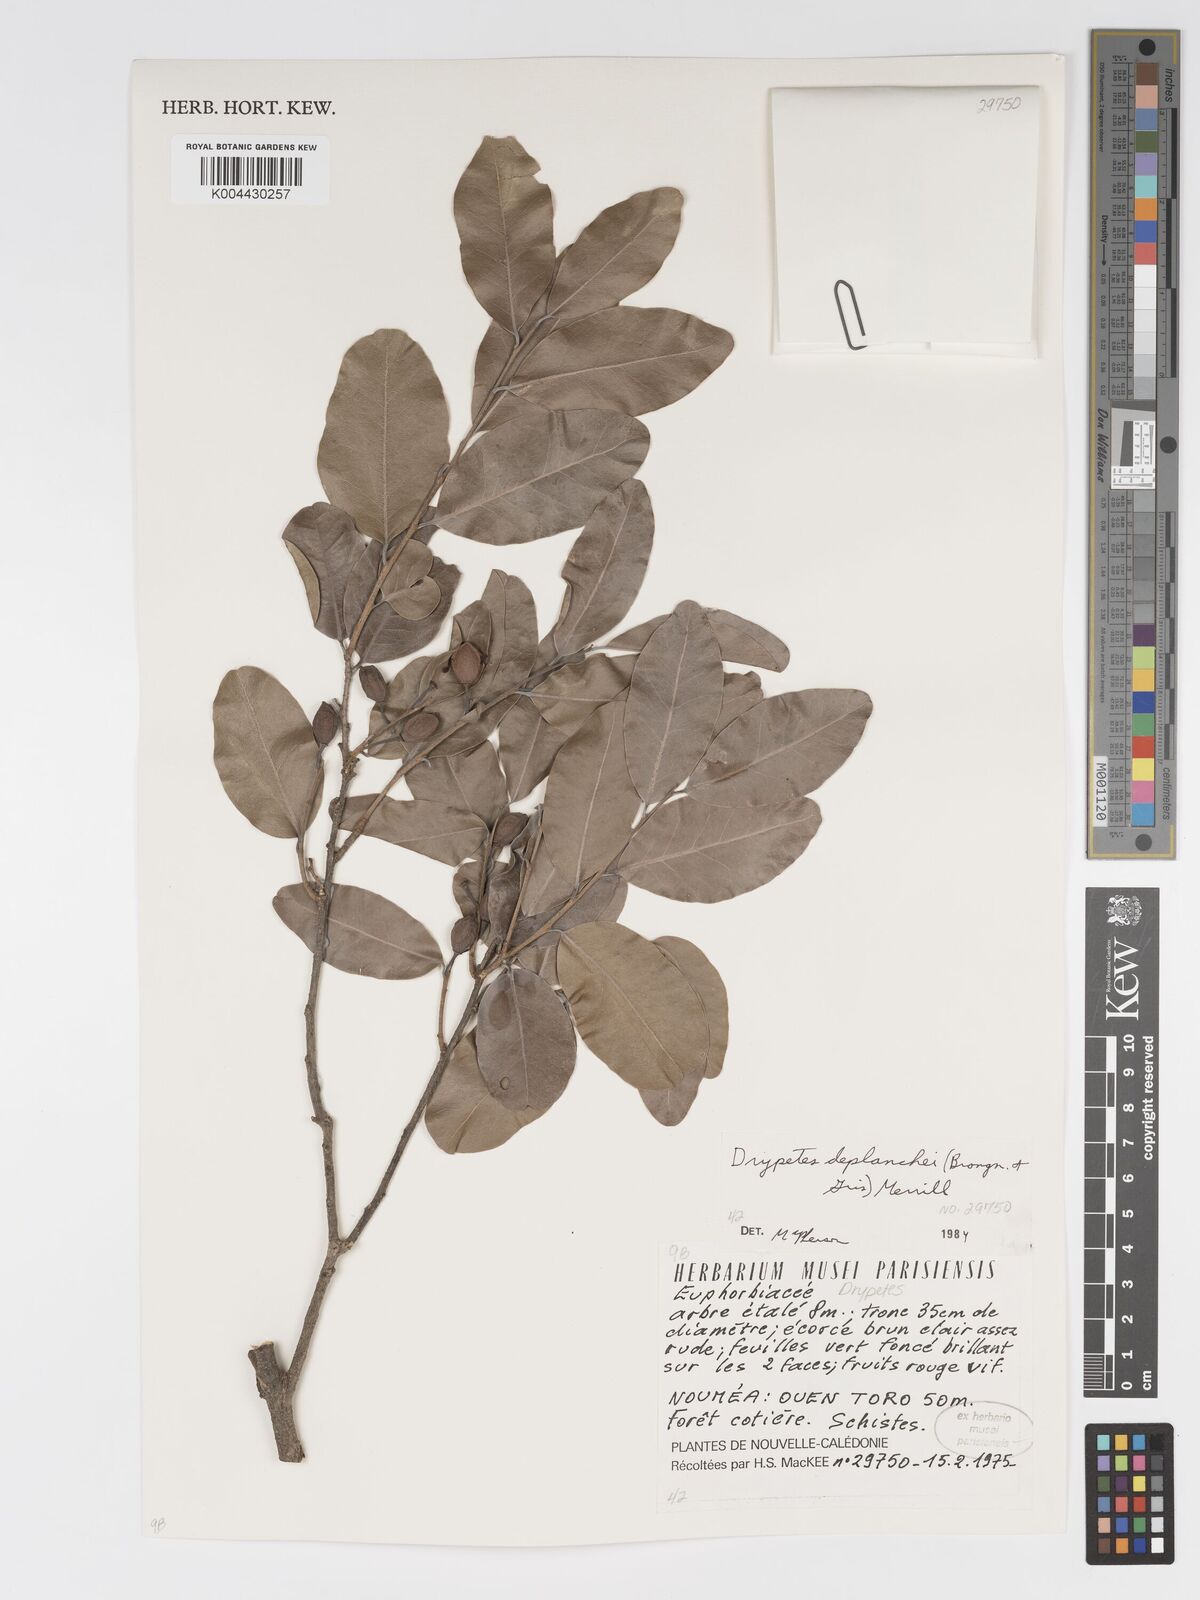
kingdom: Plantae
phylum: Tracheophyta
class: Magnoliopsida
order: Malpighiales
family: Putranjivaceae
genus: Drypetes
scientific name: Drypetes deplanchei
